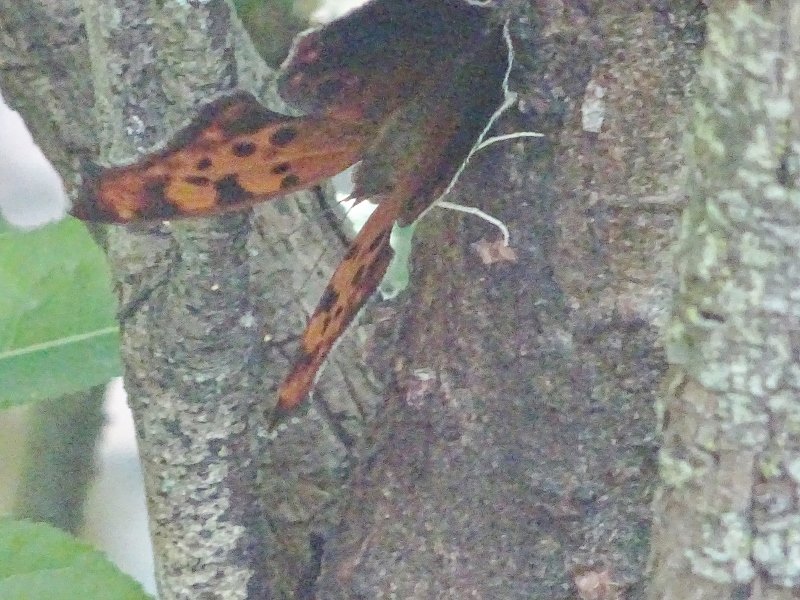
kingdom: Animalia
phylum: Arthropoda
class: Insecta
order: Lepidoptera
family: Nymphalidae
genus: Polygonia
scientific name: Polygonia interrogationis
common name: Question Mark
